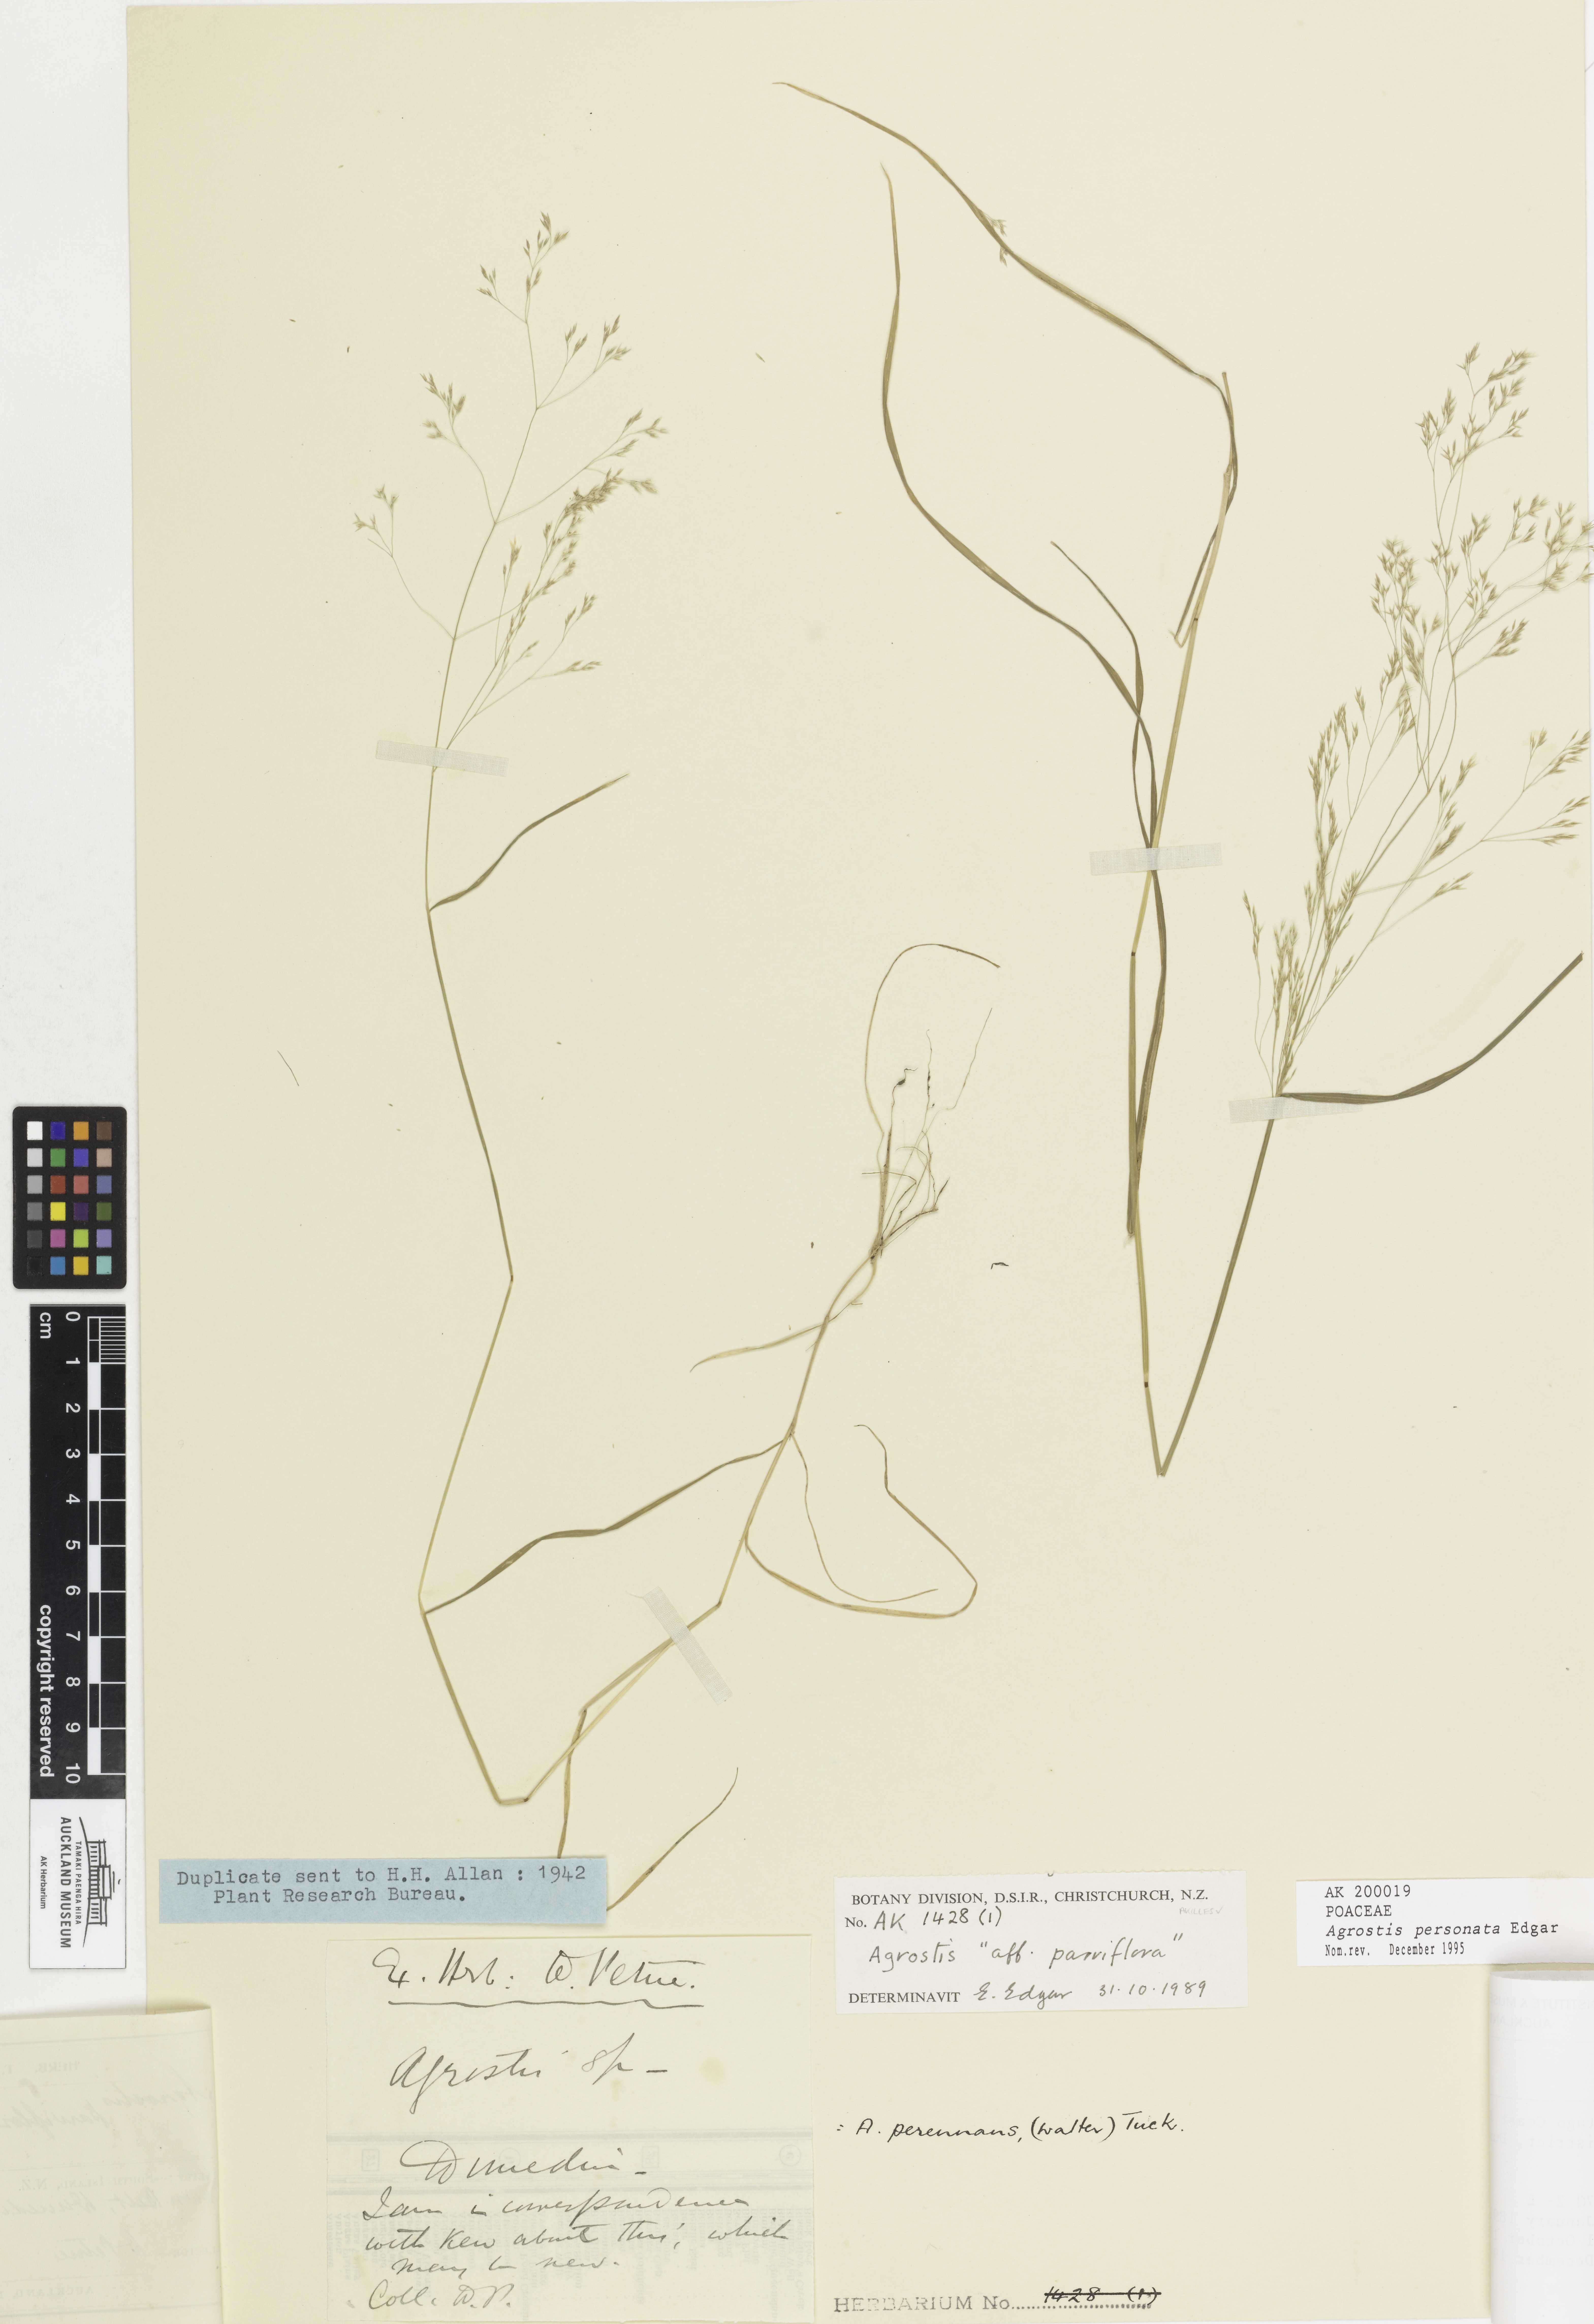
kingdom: Plantae
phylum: Tracheophyta
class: Liliopsida
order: Poales
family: Poaceae
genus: Agrostis
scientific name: Agrostis personata
